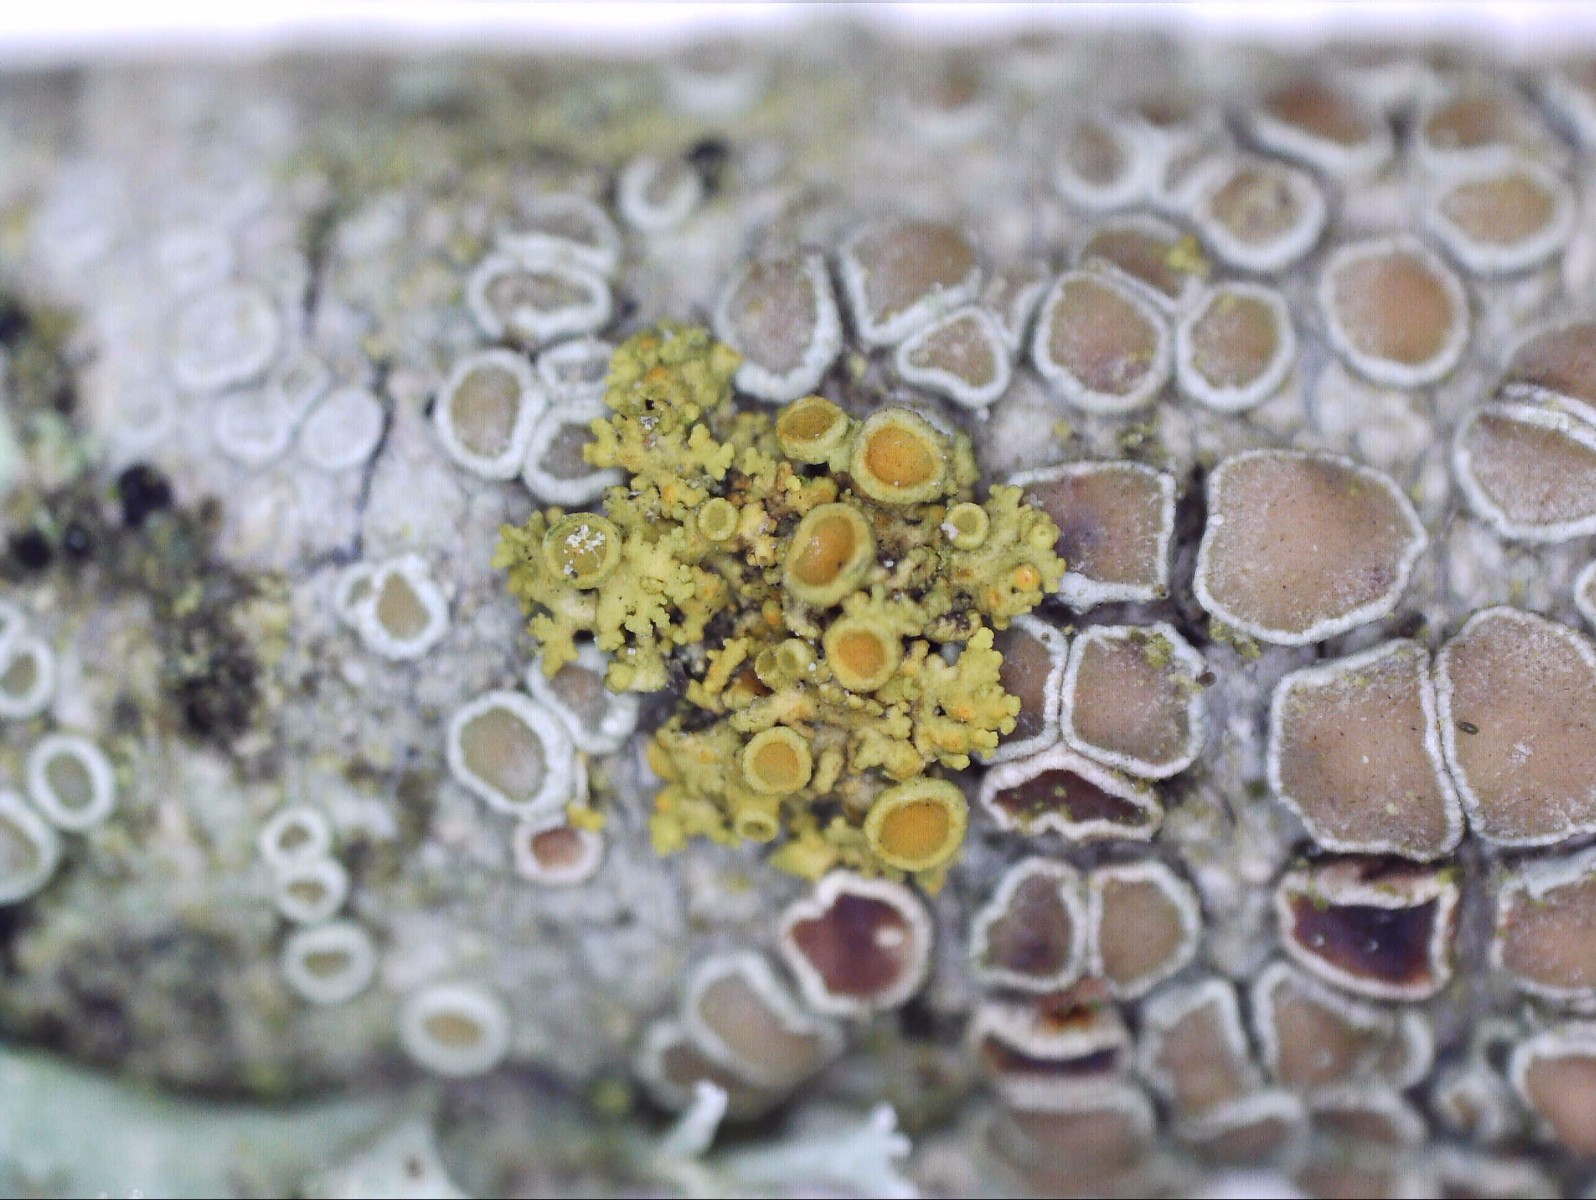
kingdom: Fungi
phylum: Ascomycota
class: Lecanoromycetes
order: Teloschistales
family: Teloschistaceae
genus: Polycauliona
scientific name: Polycauliona polycarpa
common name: mangefrugtet orangelav
